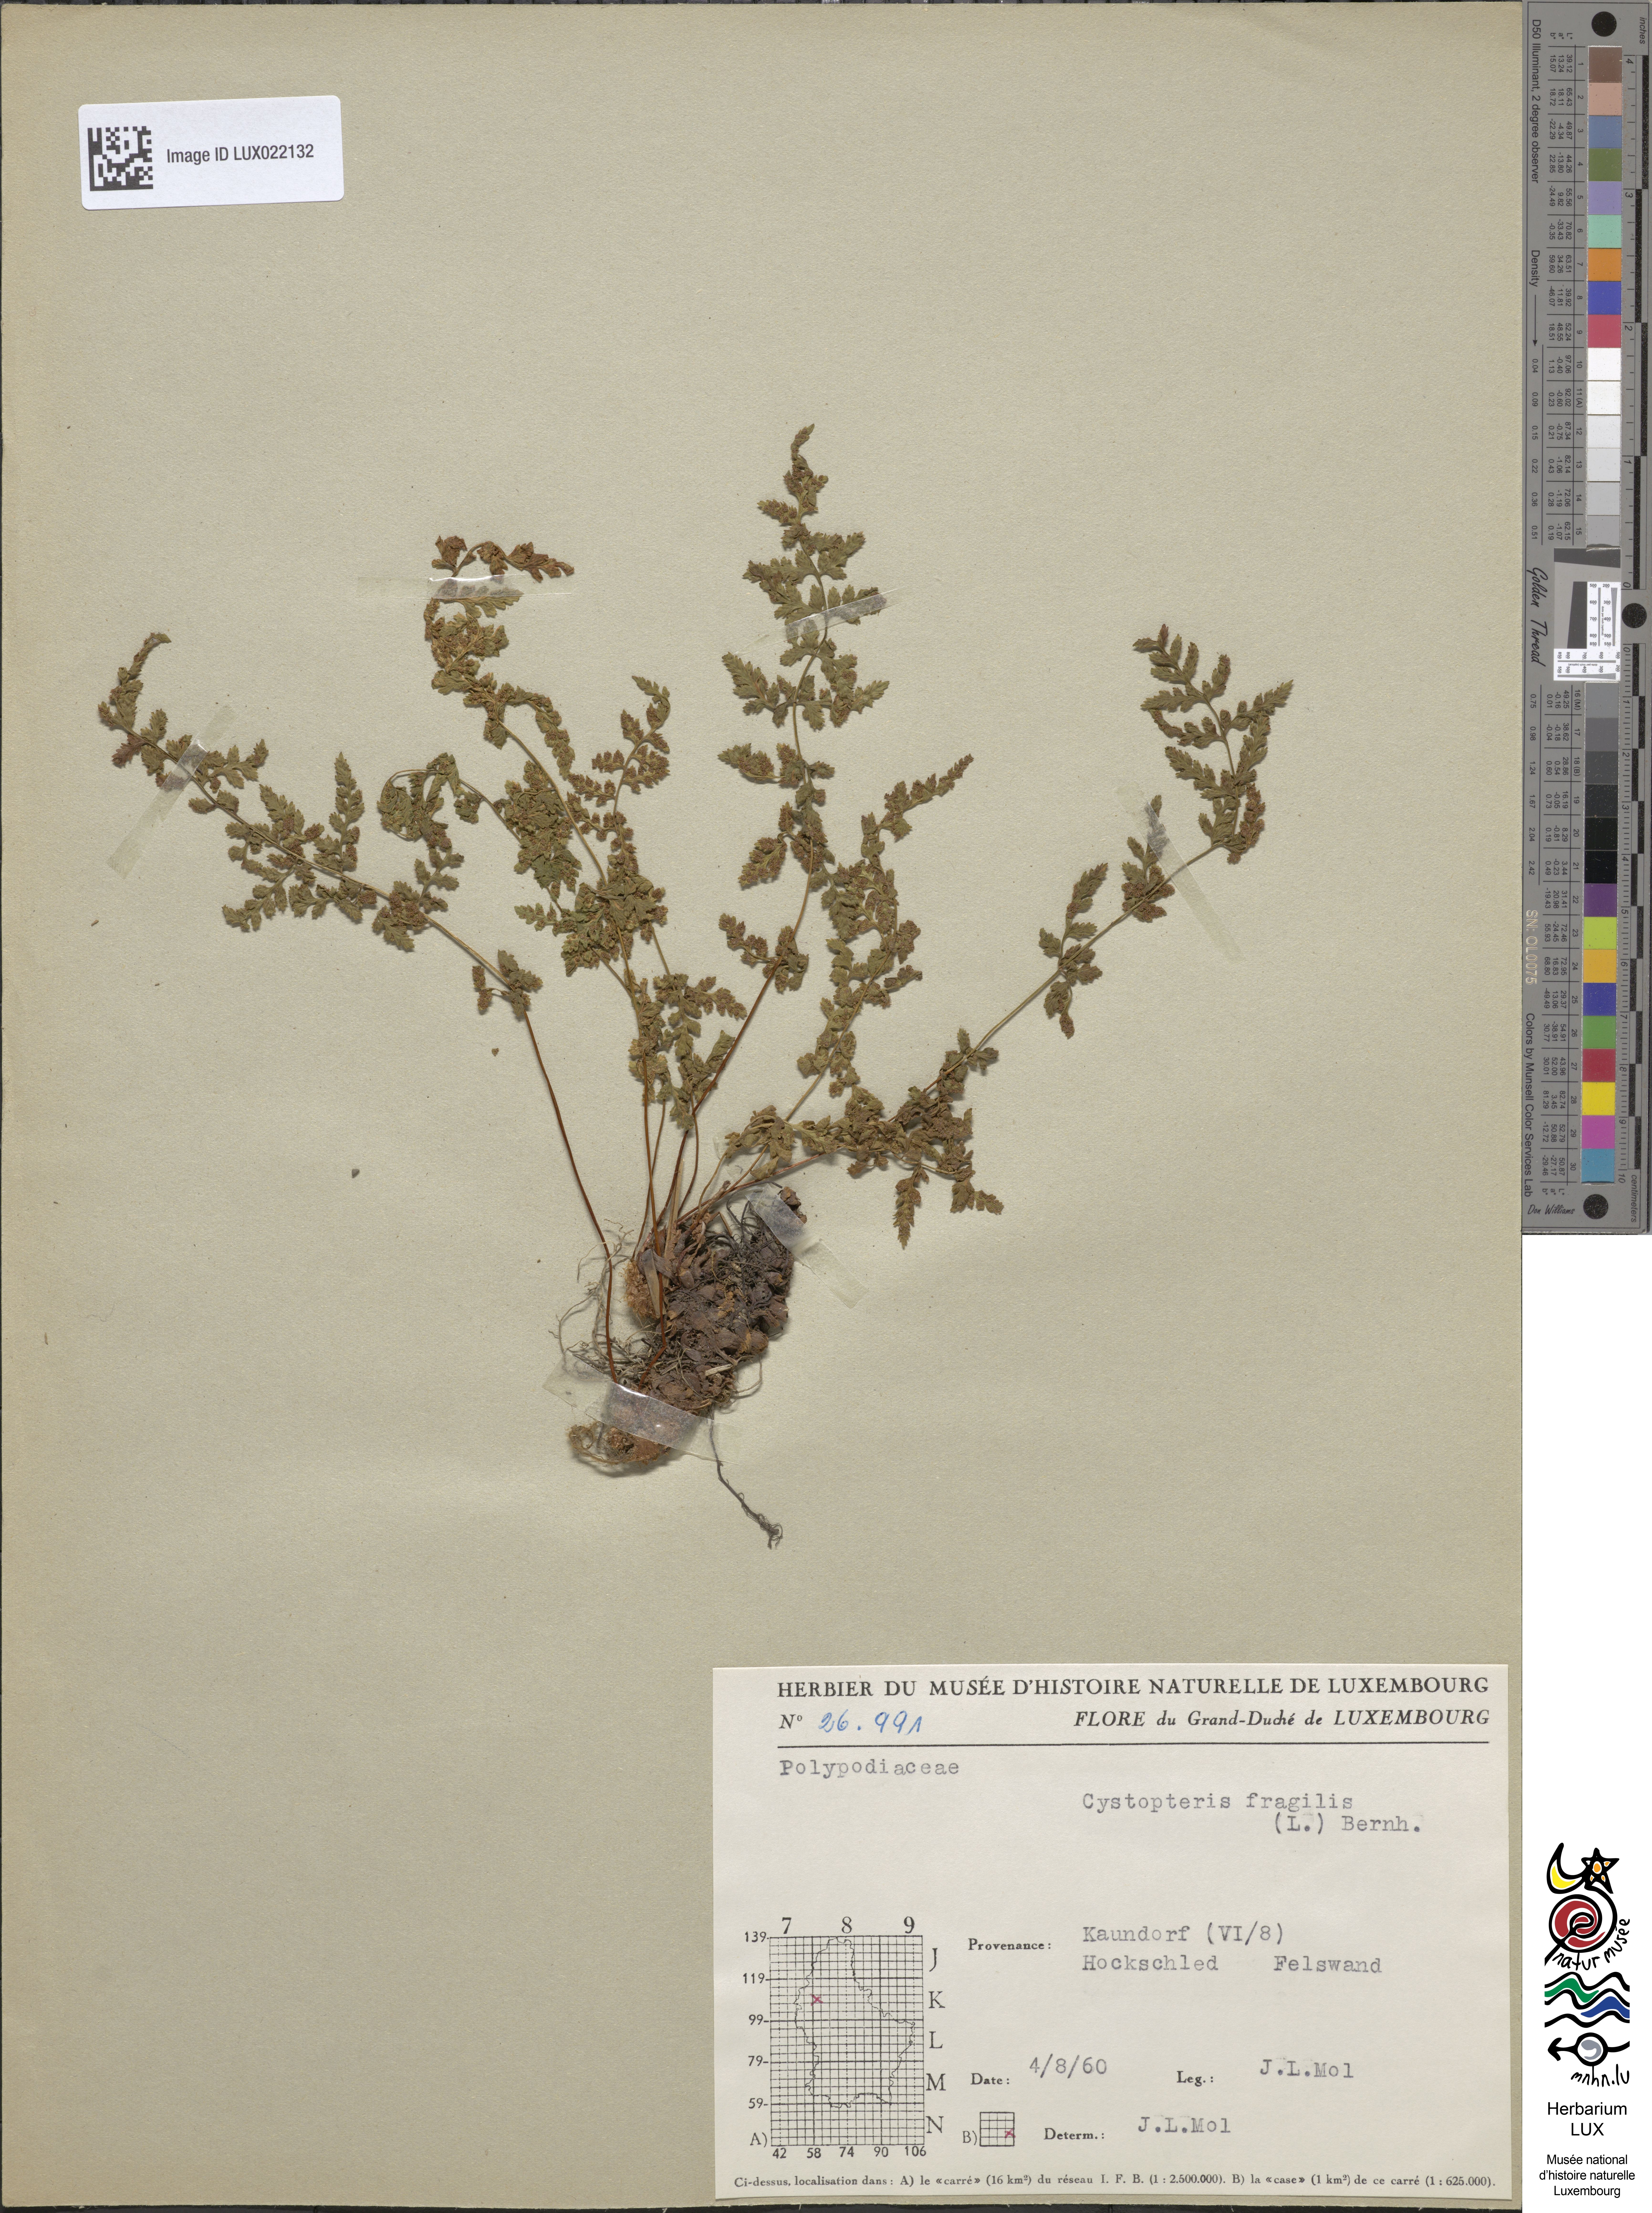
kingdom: Plantae
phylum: Tracheophyta
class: Polypodiopsida
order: Polypodiales
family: Cystopteridaceae
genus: Cystopteris
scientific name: Cystopteris fragilis
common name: Brittle bladder fern
